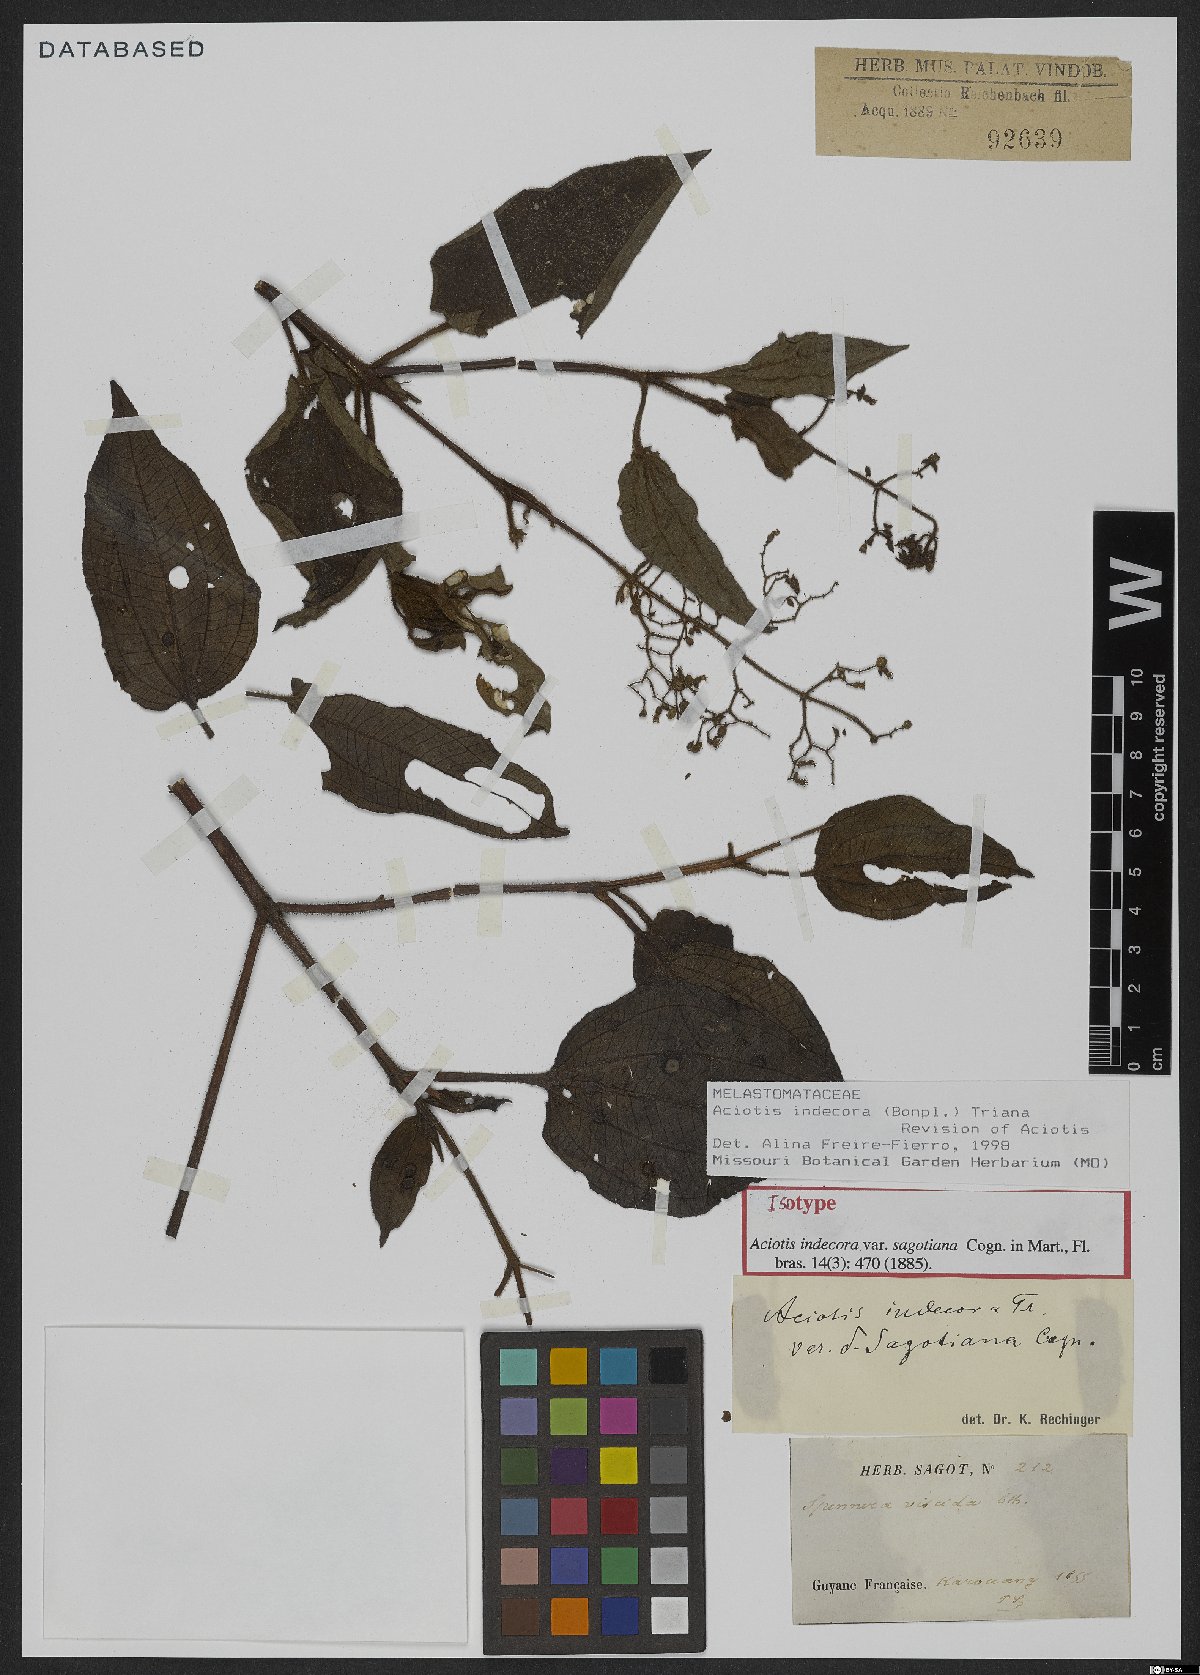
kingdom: Plantae
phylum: Tracheophyta
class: Magnoliopsida
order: Myrtales
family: Melastomataceae
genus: Aciotis
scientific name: Aciotis indecora
